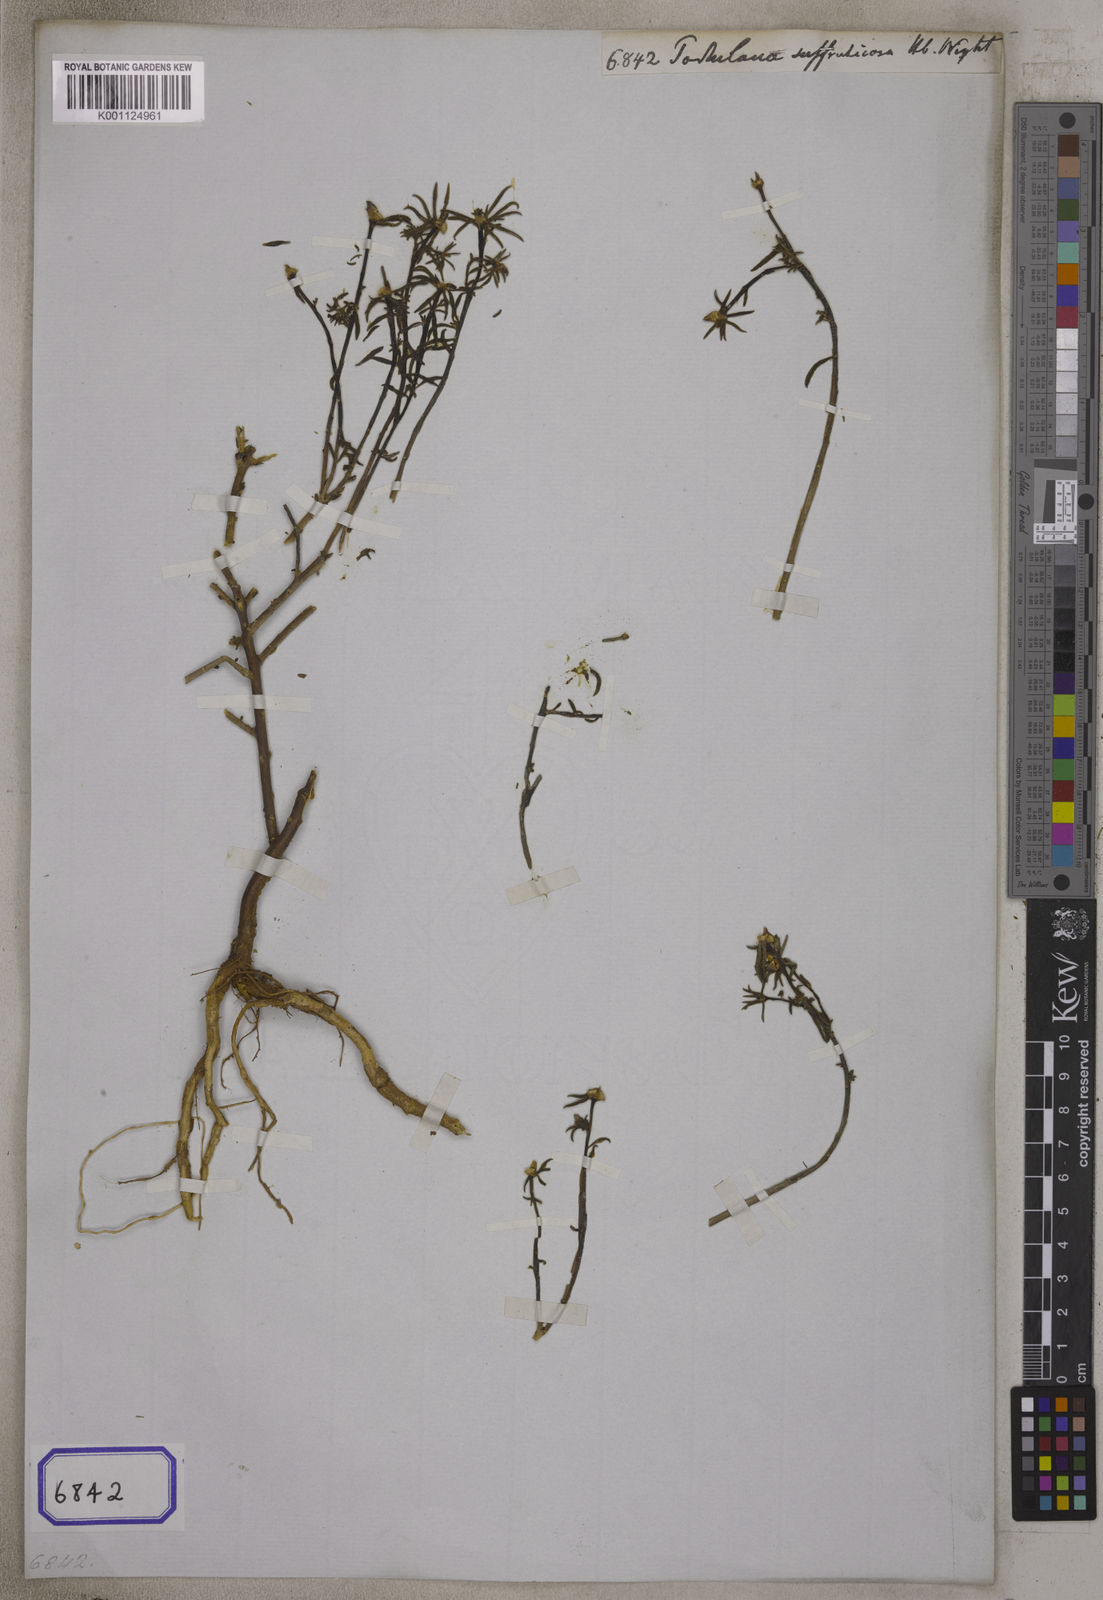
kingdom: Plantae
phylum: Tracheophyta
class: Magnoliopsida
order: Caryophyllales
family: Portulacaceae
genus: Portulaca
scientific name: Portulaca
